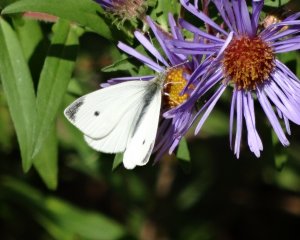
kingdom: Animalia
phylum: Arthropoda
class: Insecta
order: Lepidoptera
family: Pieridae
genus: Pieris
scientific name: Pieris rapae
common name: Cabbage White
